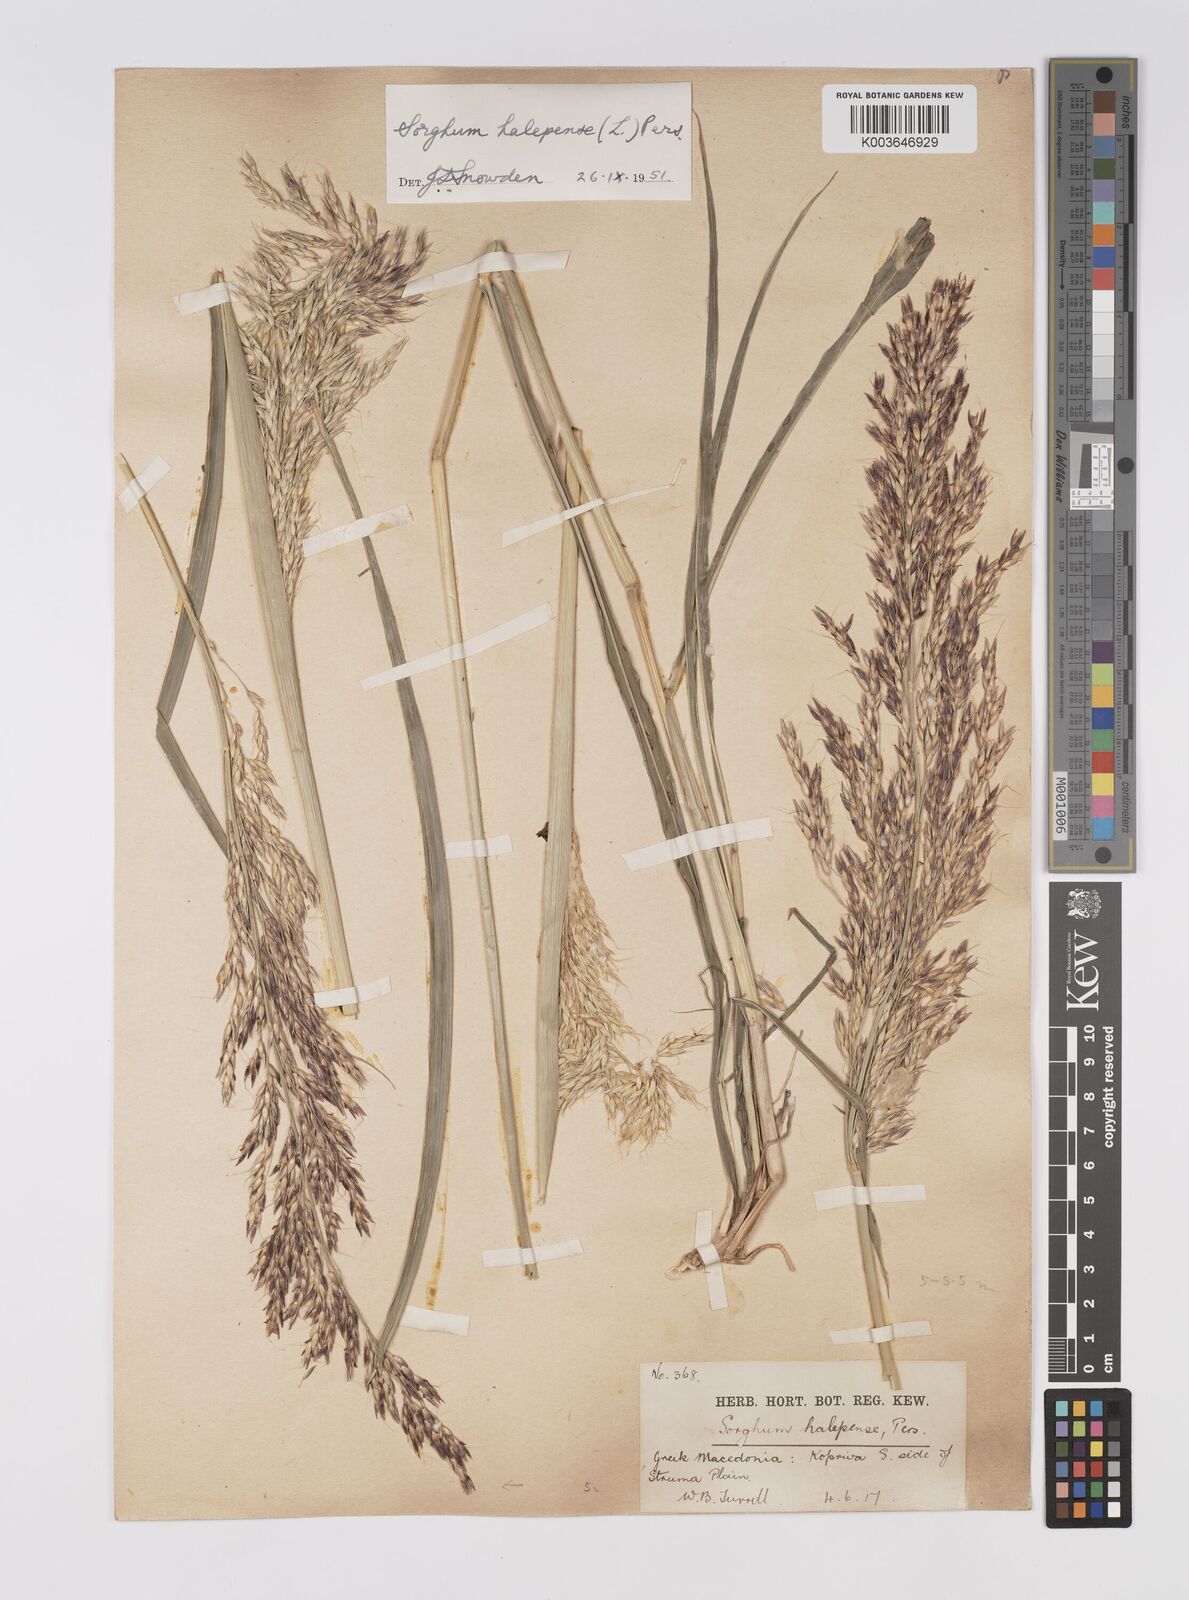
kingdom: Plantae
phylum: Tracheophyta
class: Liliopsida
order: Poales
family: Poaceae
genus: Sorghum
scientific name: Sorghum halepense
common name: Johnson-grass
